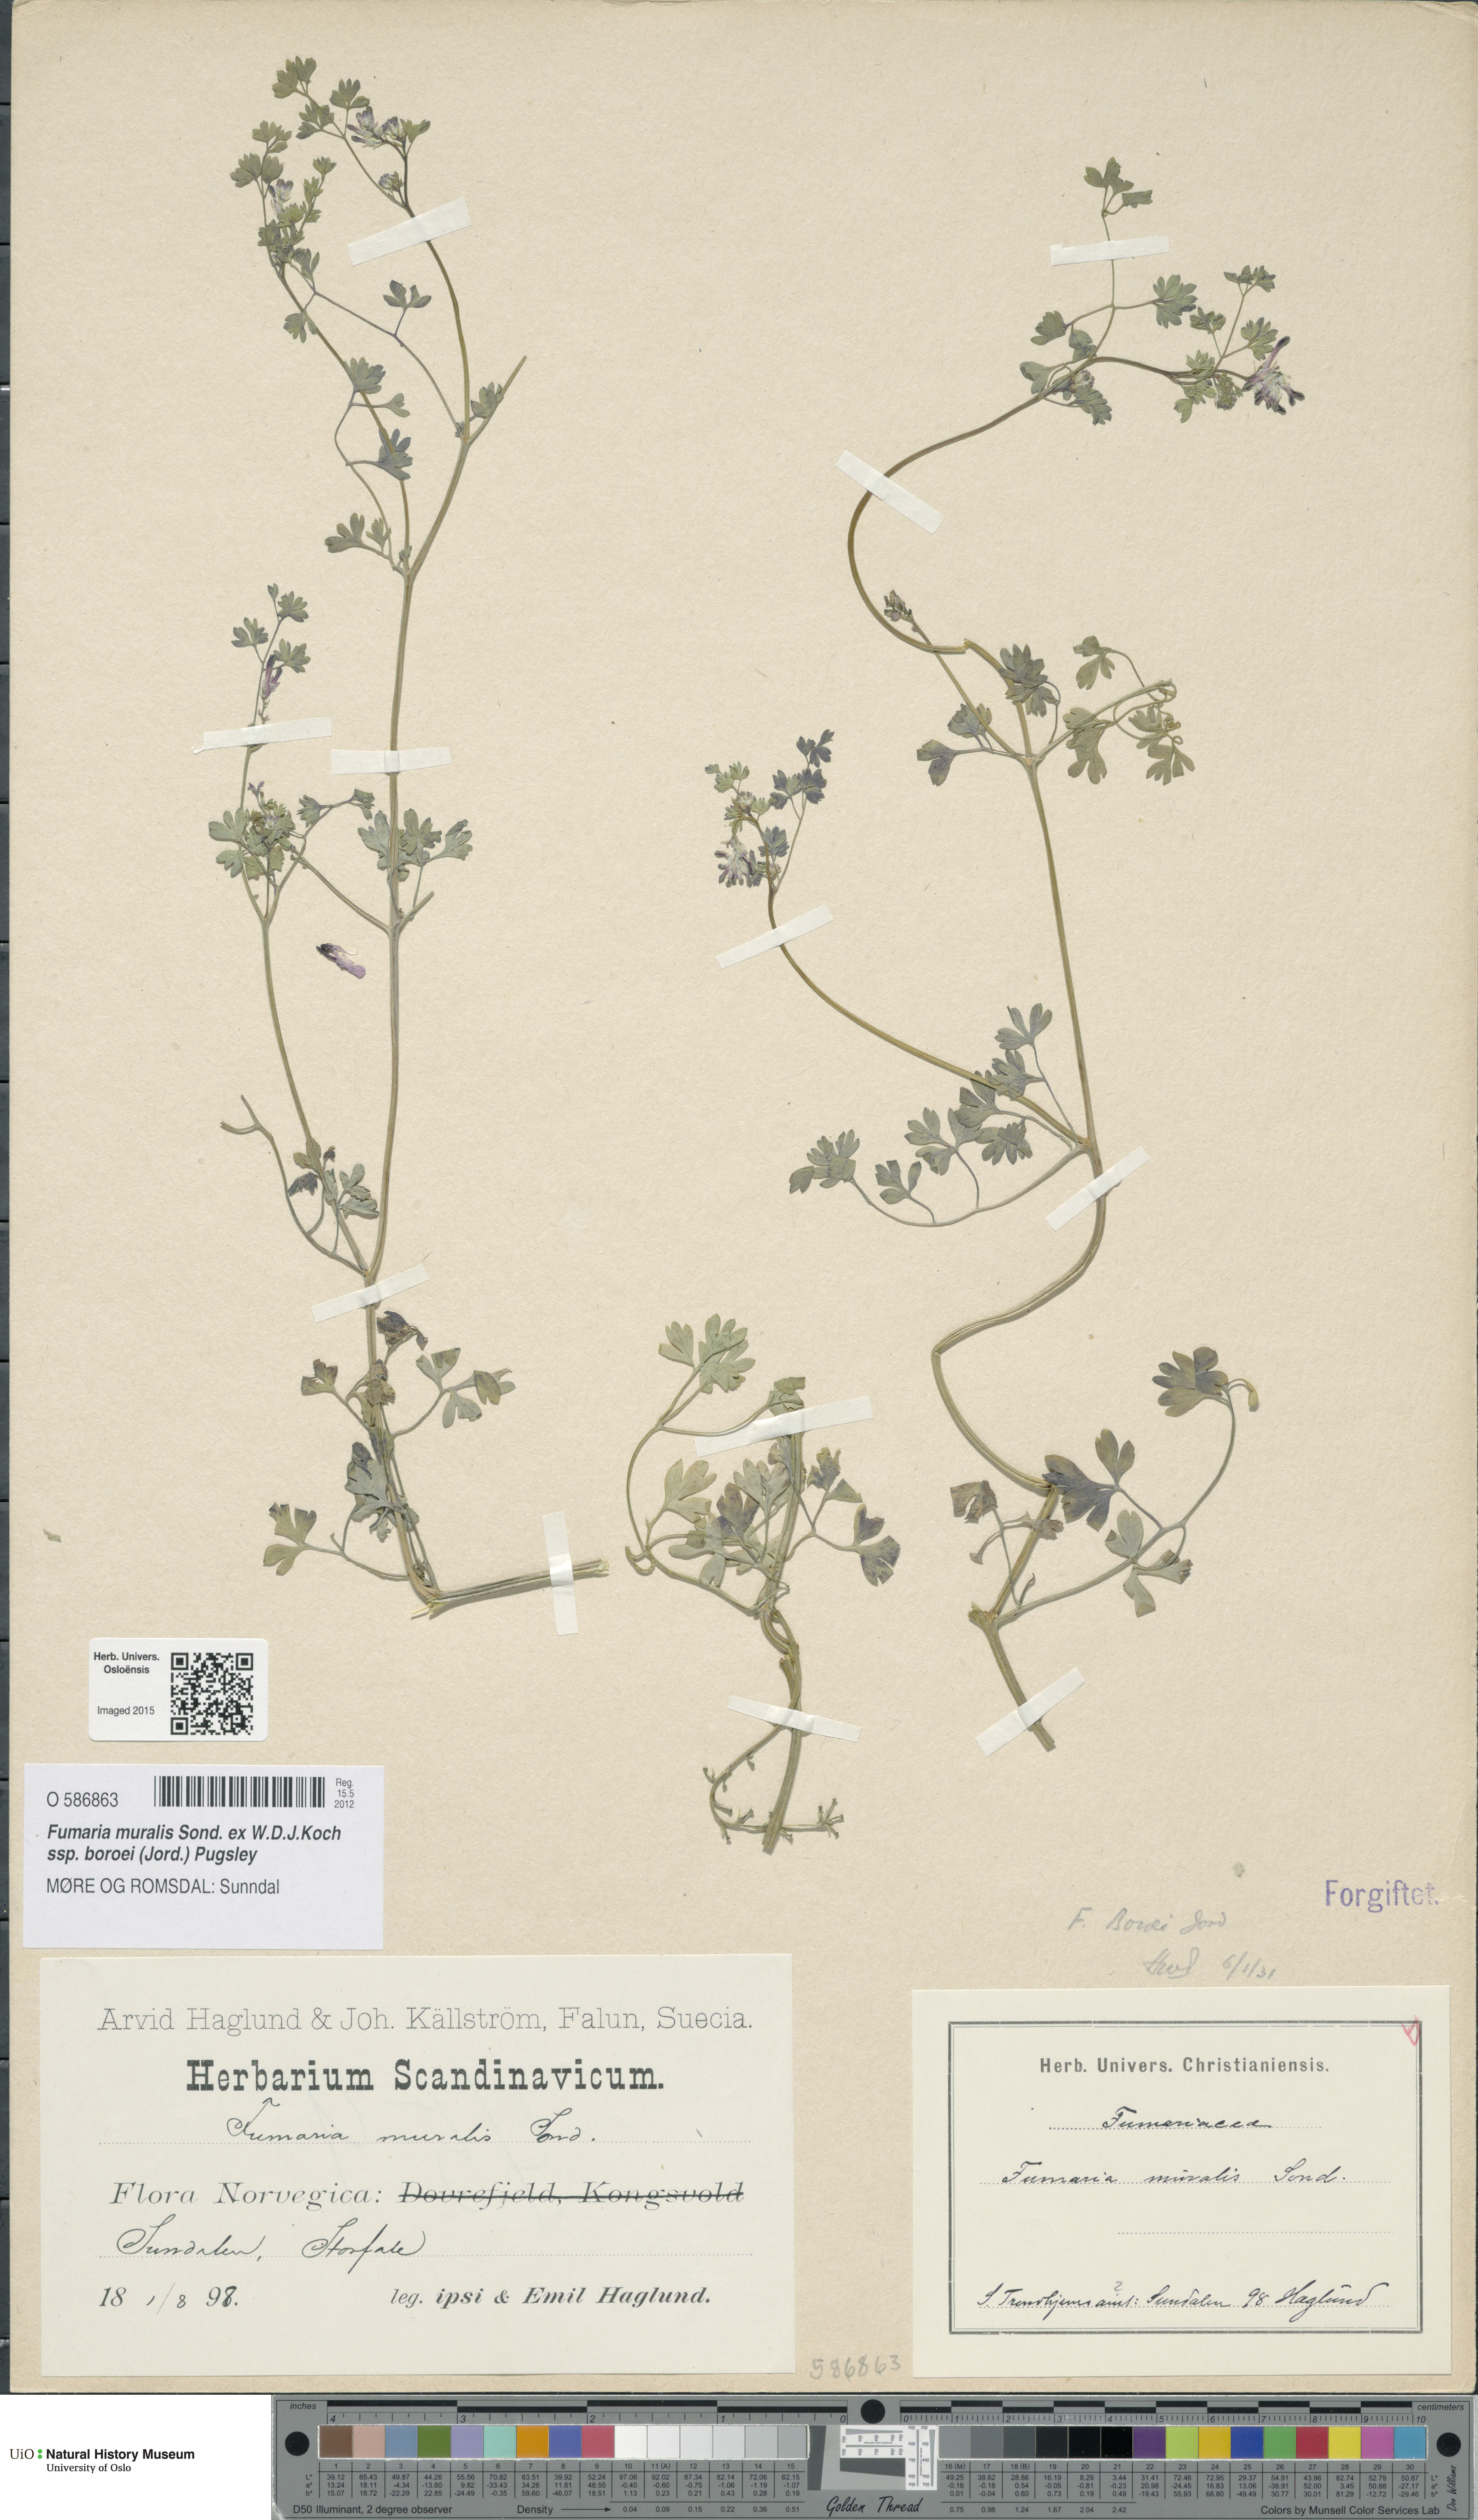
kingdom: Plantae
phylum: Tracheophyta
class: Magnoliopsida
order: Ranunculales
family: Papaveraceae
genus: Fumaria
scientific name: Fumaria muralis
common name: Common ramping-fumitory
